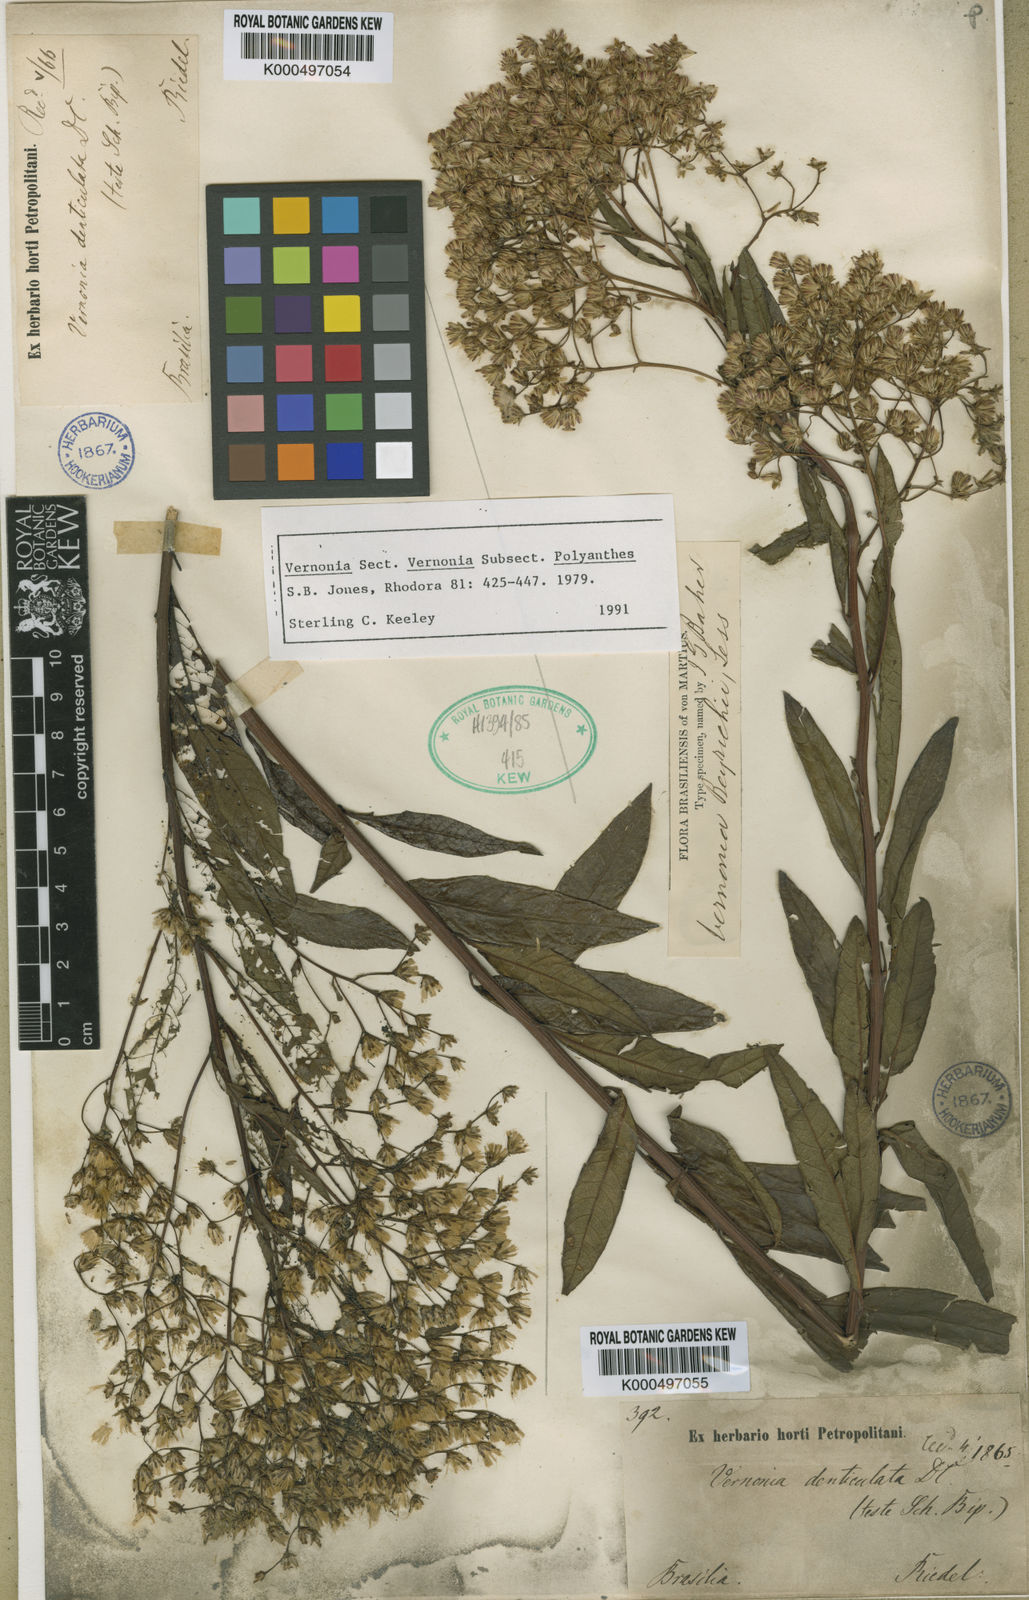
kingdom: Plantae
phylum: Tracheophyta
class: Magnoliopsida
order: Asterales
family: Asteraceae
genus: Vernonanthura
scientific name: Vernonanthura beyrichii
